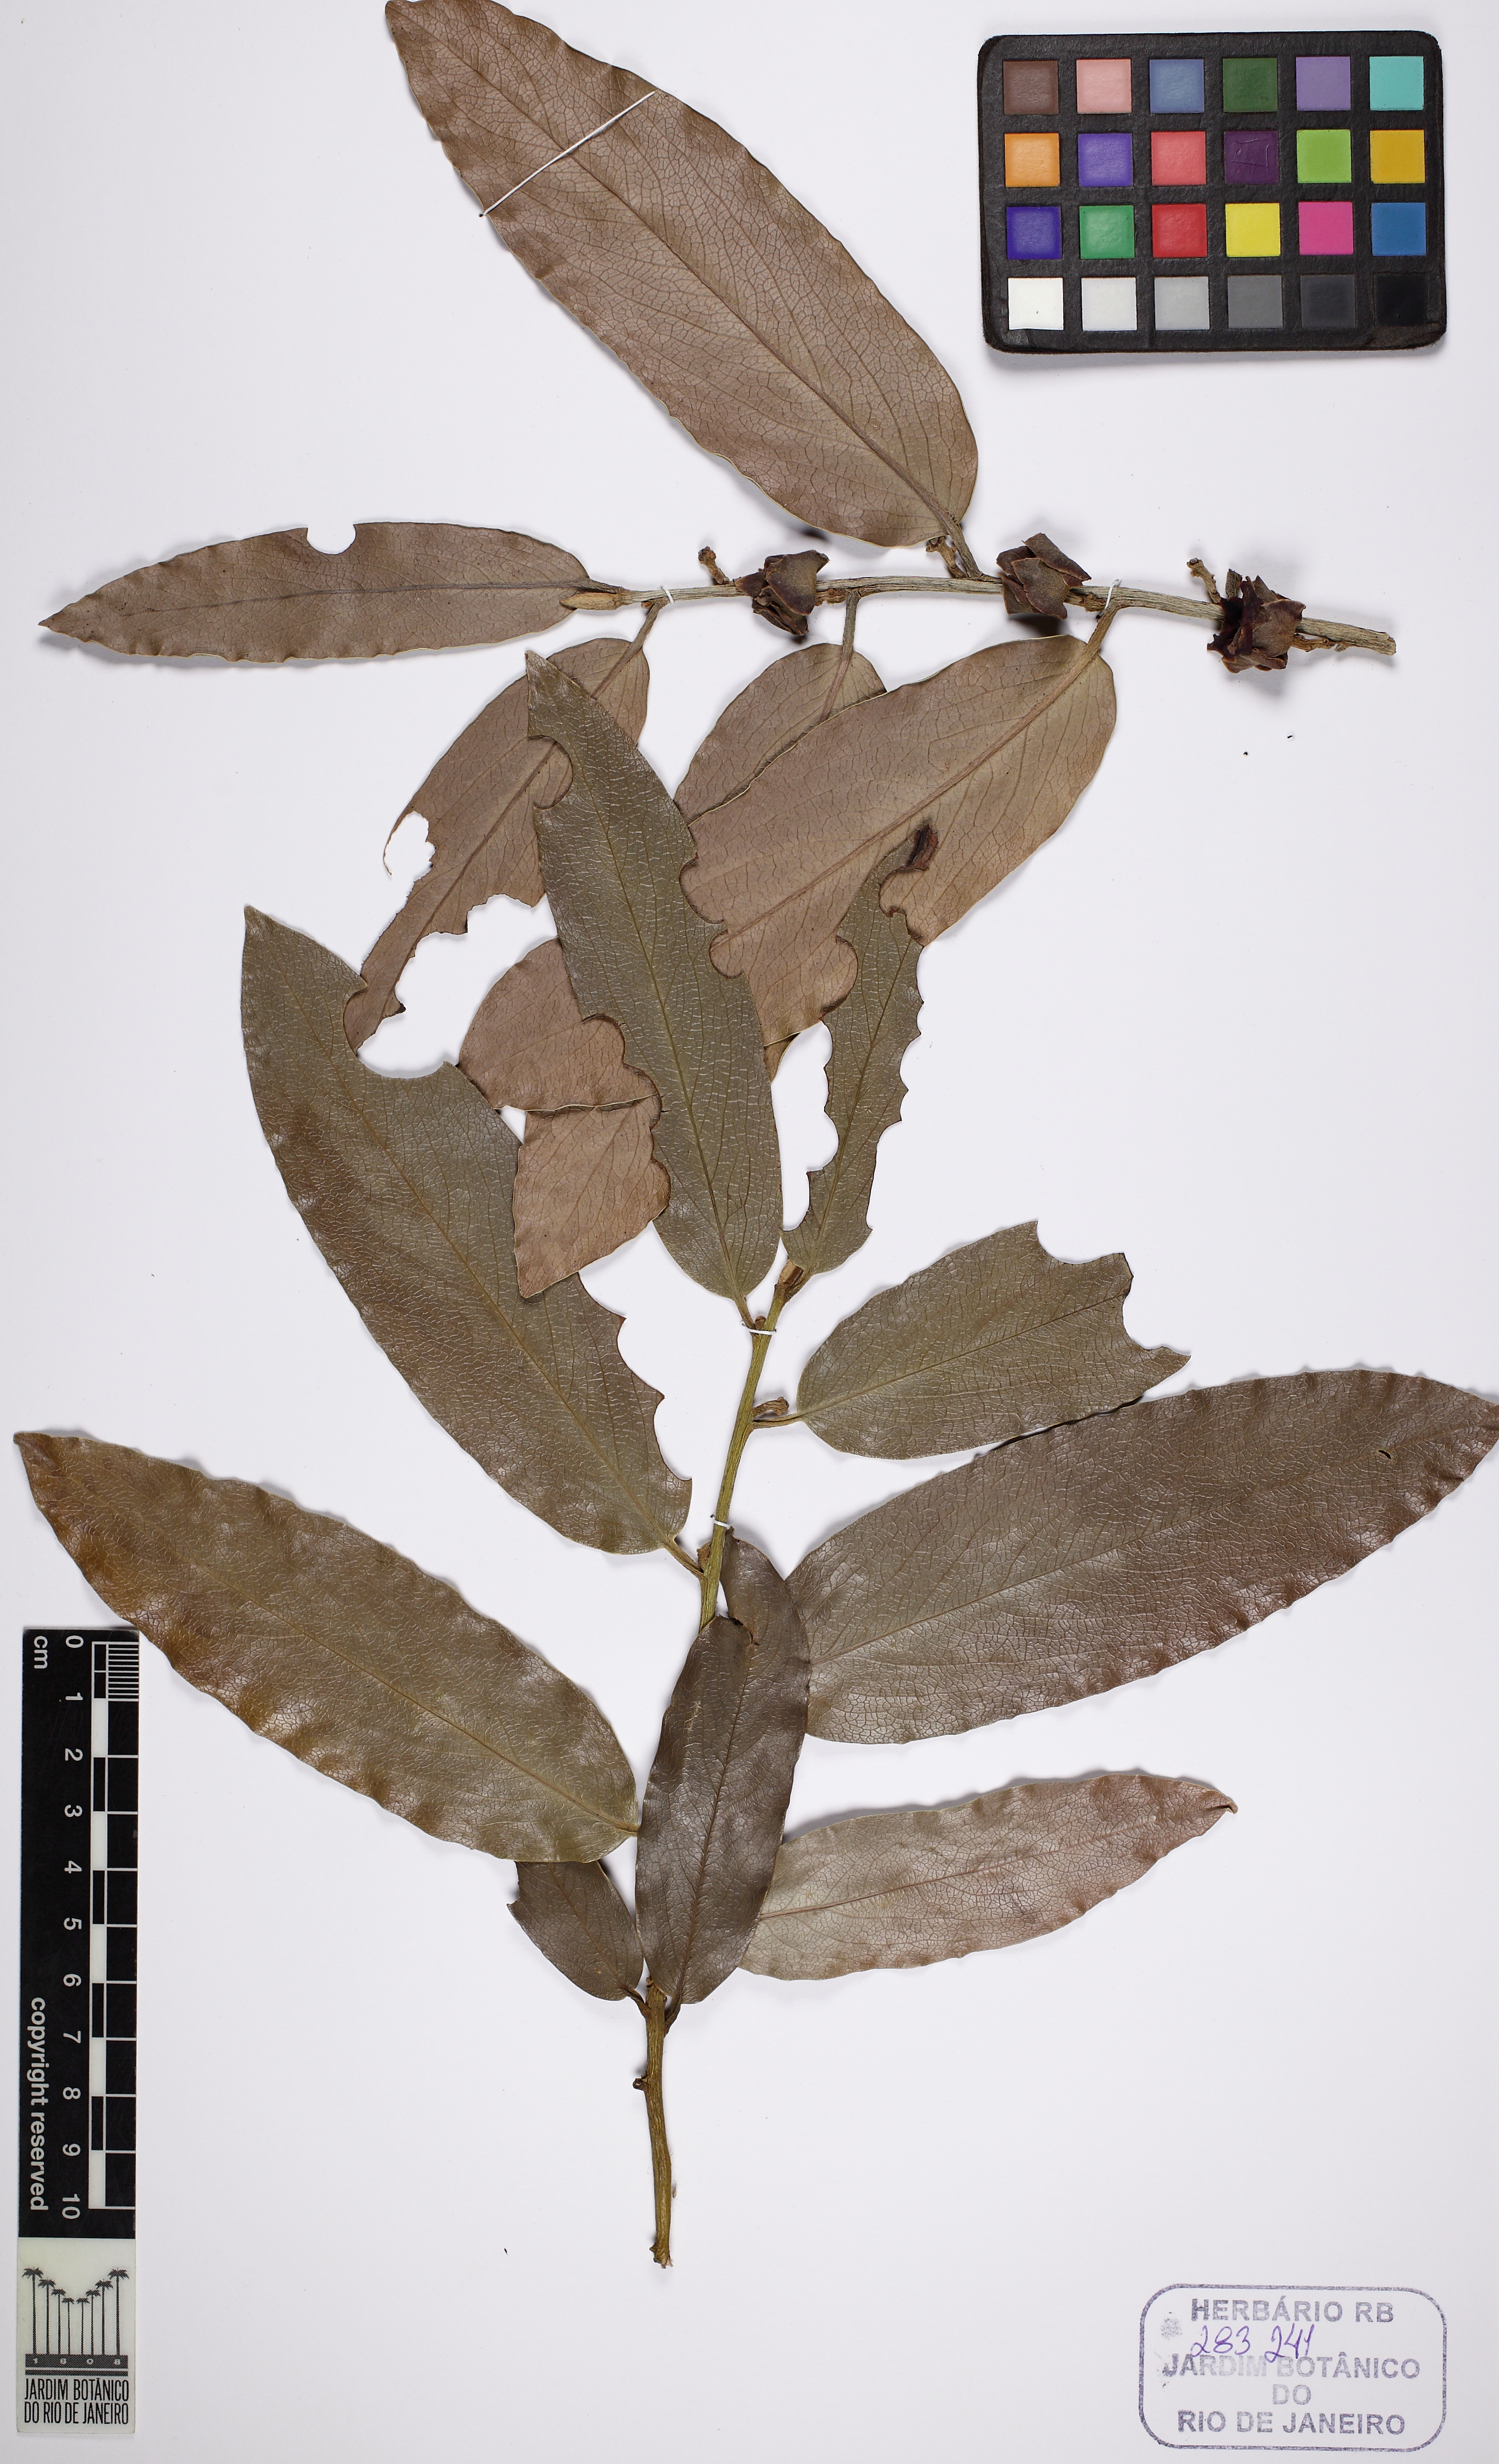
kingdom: Plantae
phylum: Tracheophyta
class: Magnoliopsida
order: Ericales
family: Ebenaceae
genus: Diospyros
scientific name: Diospyros malabarica
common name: Mountain ebony
